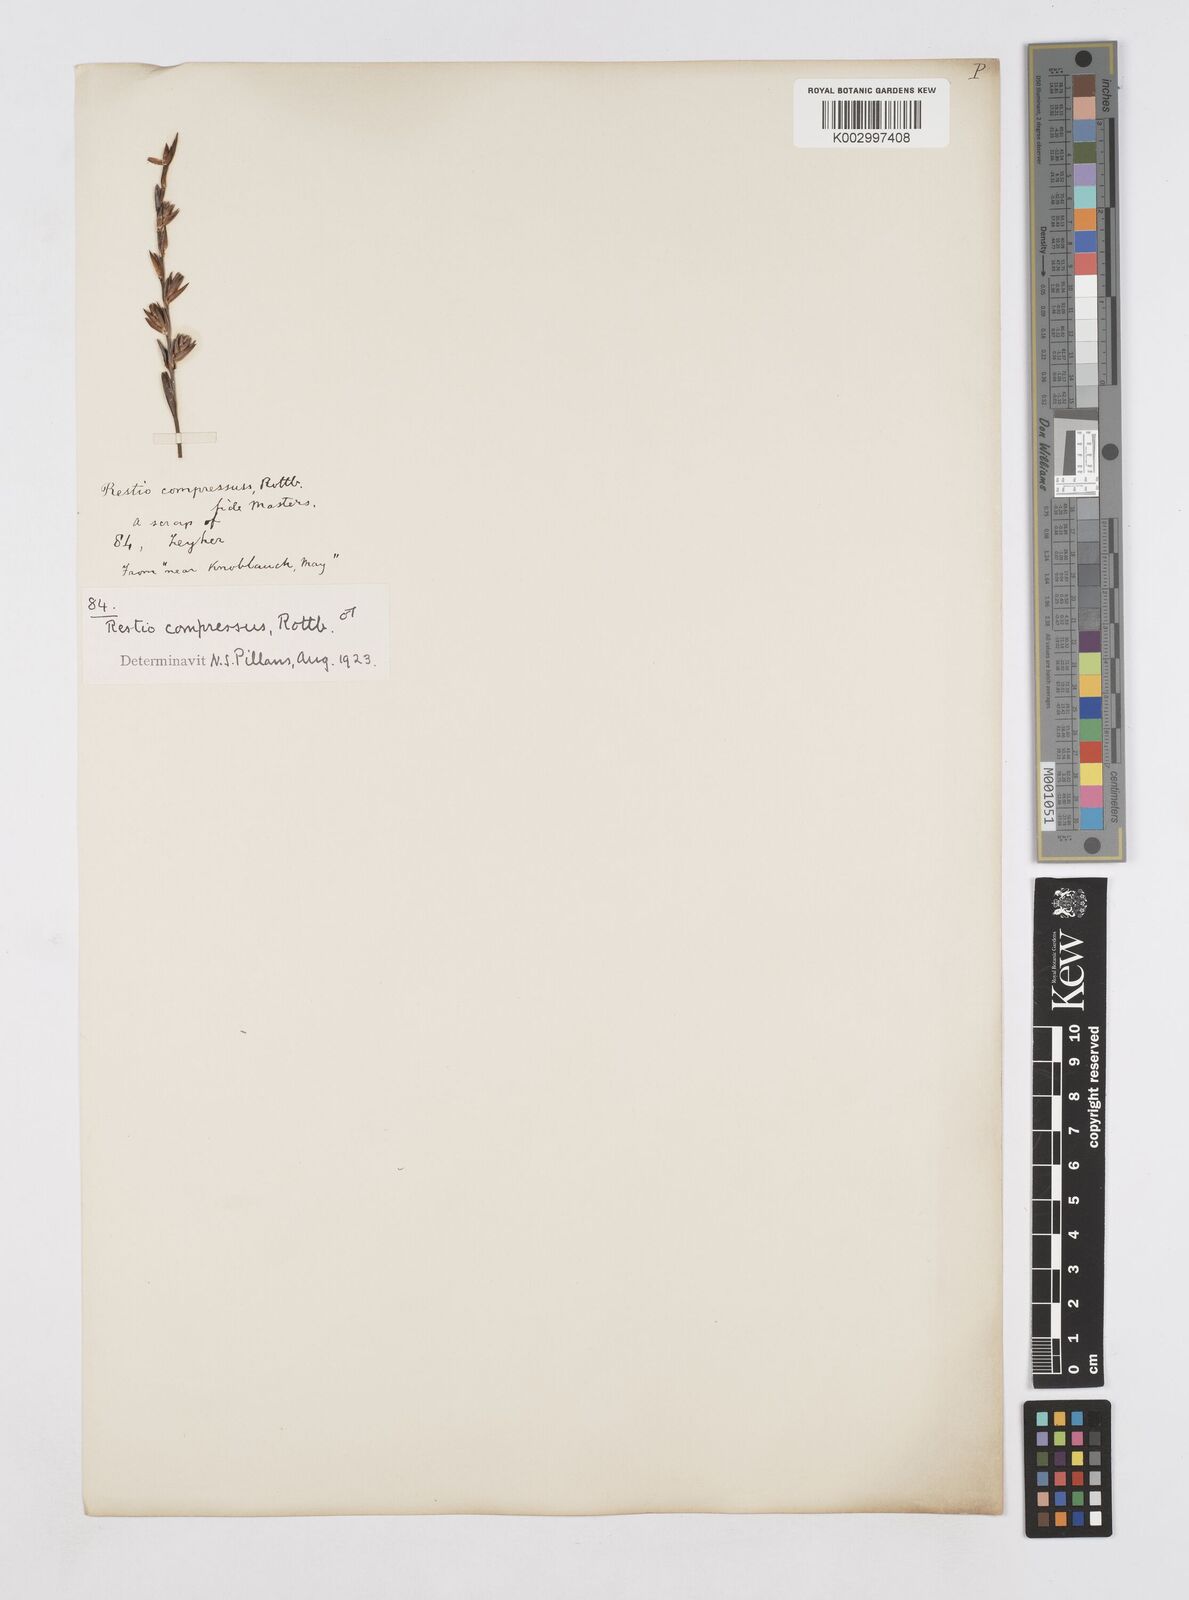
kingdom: Plantae
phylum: Tracheophyta
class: Liliopsida
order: Poales
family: Restionaceae
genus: Platycaulos
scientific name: Platycaulos compressus
